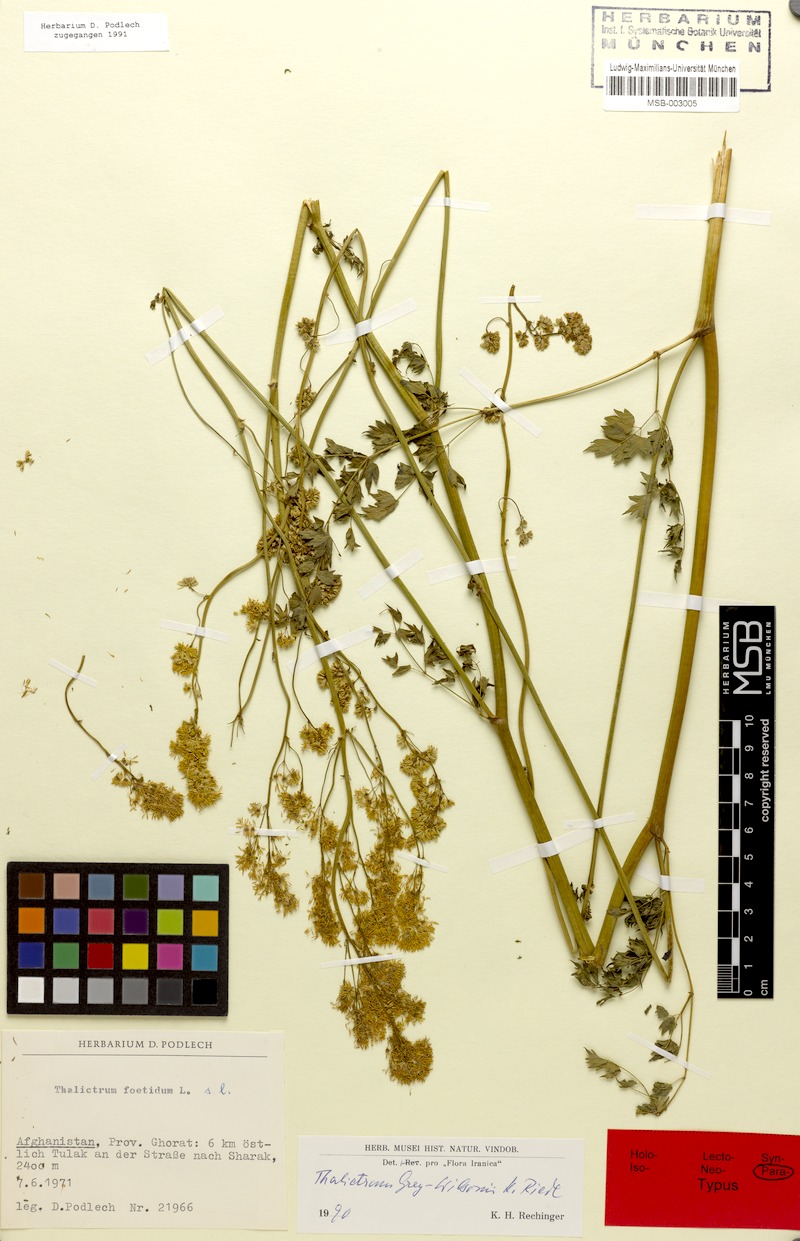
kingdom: Plantae
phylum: Tracheophyta
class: Magnoliopsida
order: Ranunculales
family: Ranunculaceae
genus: Thalictrum
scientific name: Thalictrum minus
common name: Lesser meadow-rue
